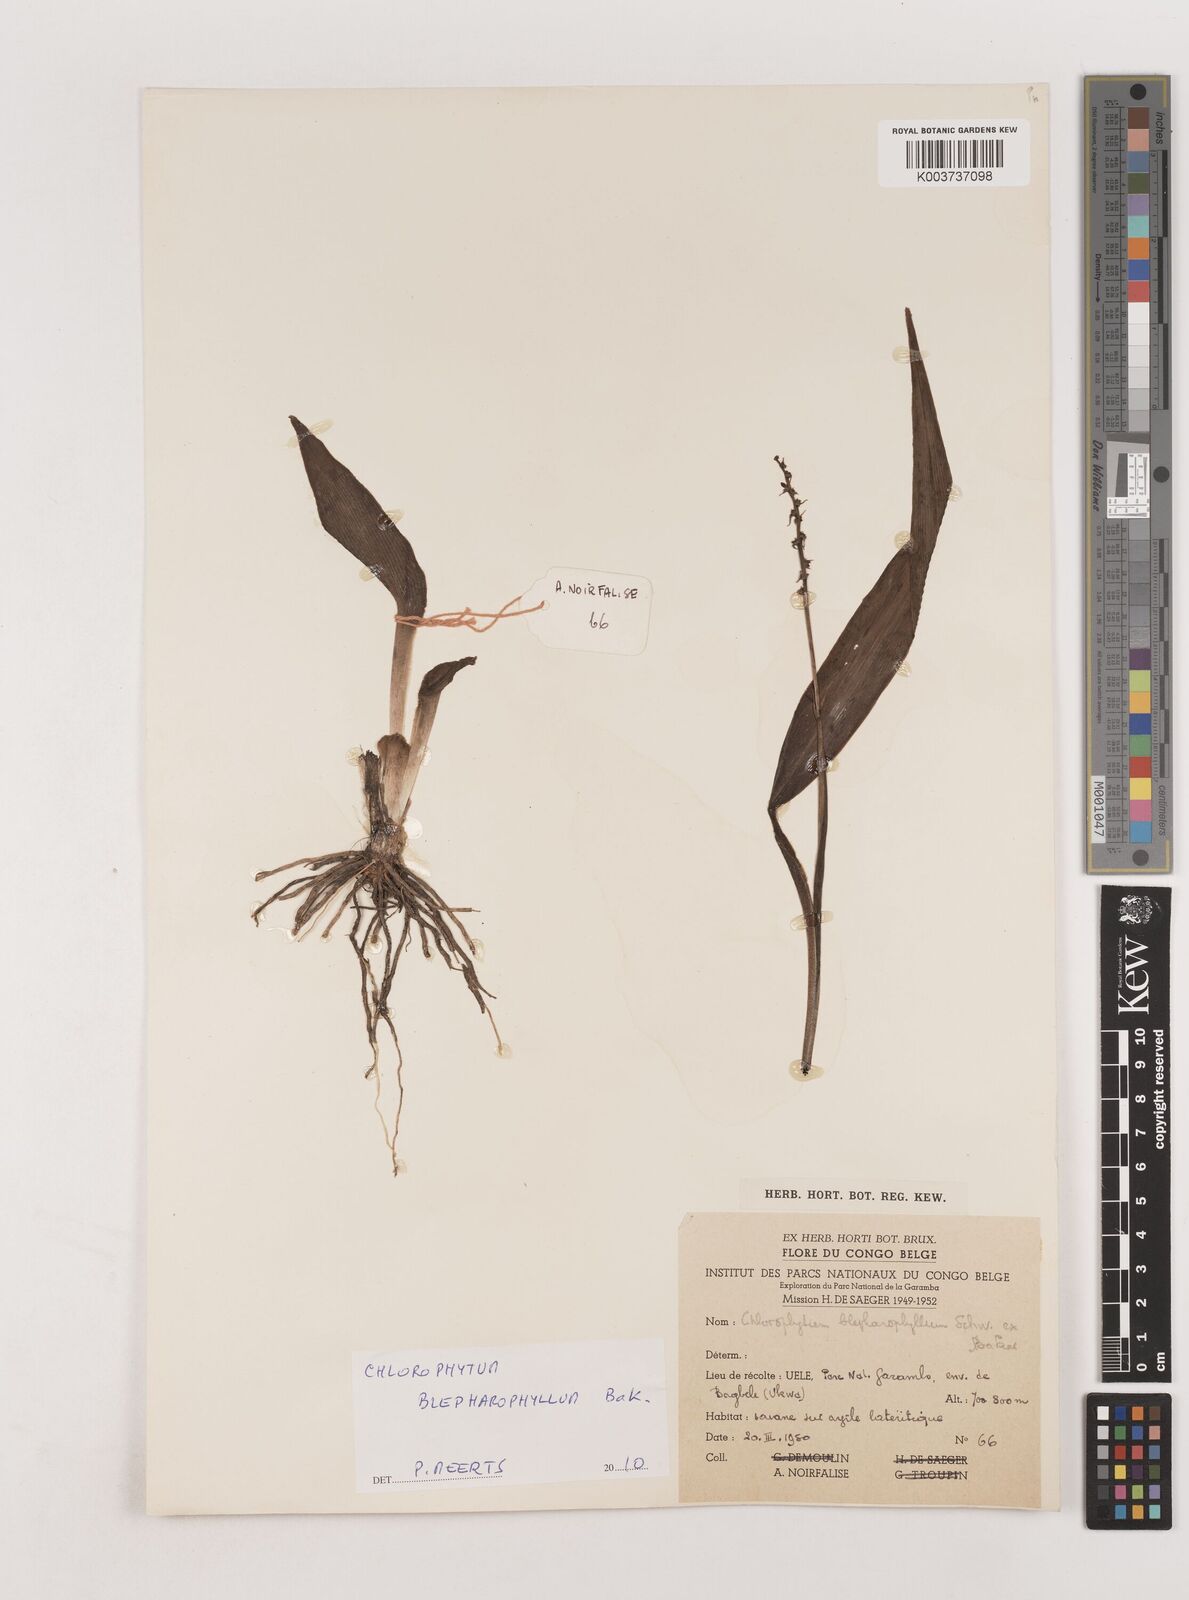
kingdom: Plantae
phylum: Tracheophyta
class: Liliopsida
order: Asparagales
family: Asparagaceae
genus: Chlorophytum
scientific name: Chlorophytum blepharophyllum
